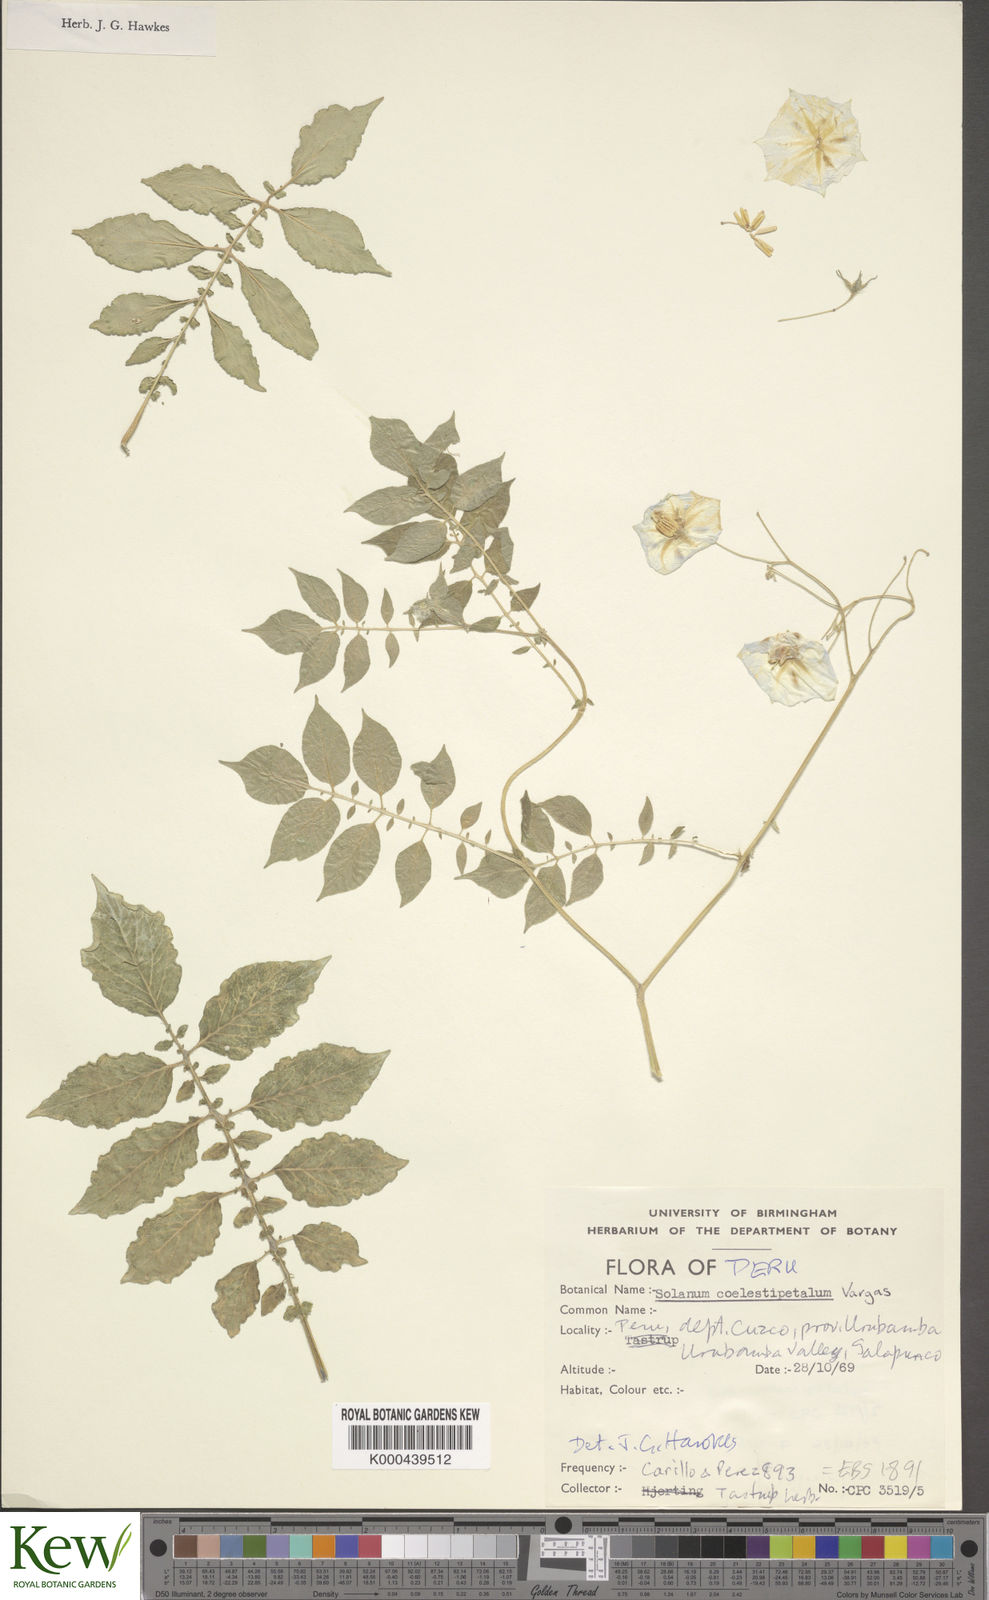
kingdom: Plantae
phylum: Tracheophyta
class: Magnoliopsida
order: Solanales
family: Solanaceae
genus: Solanum
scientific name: Solanum candolleanum
